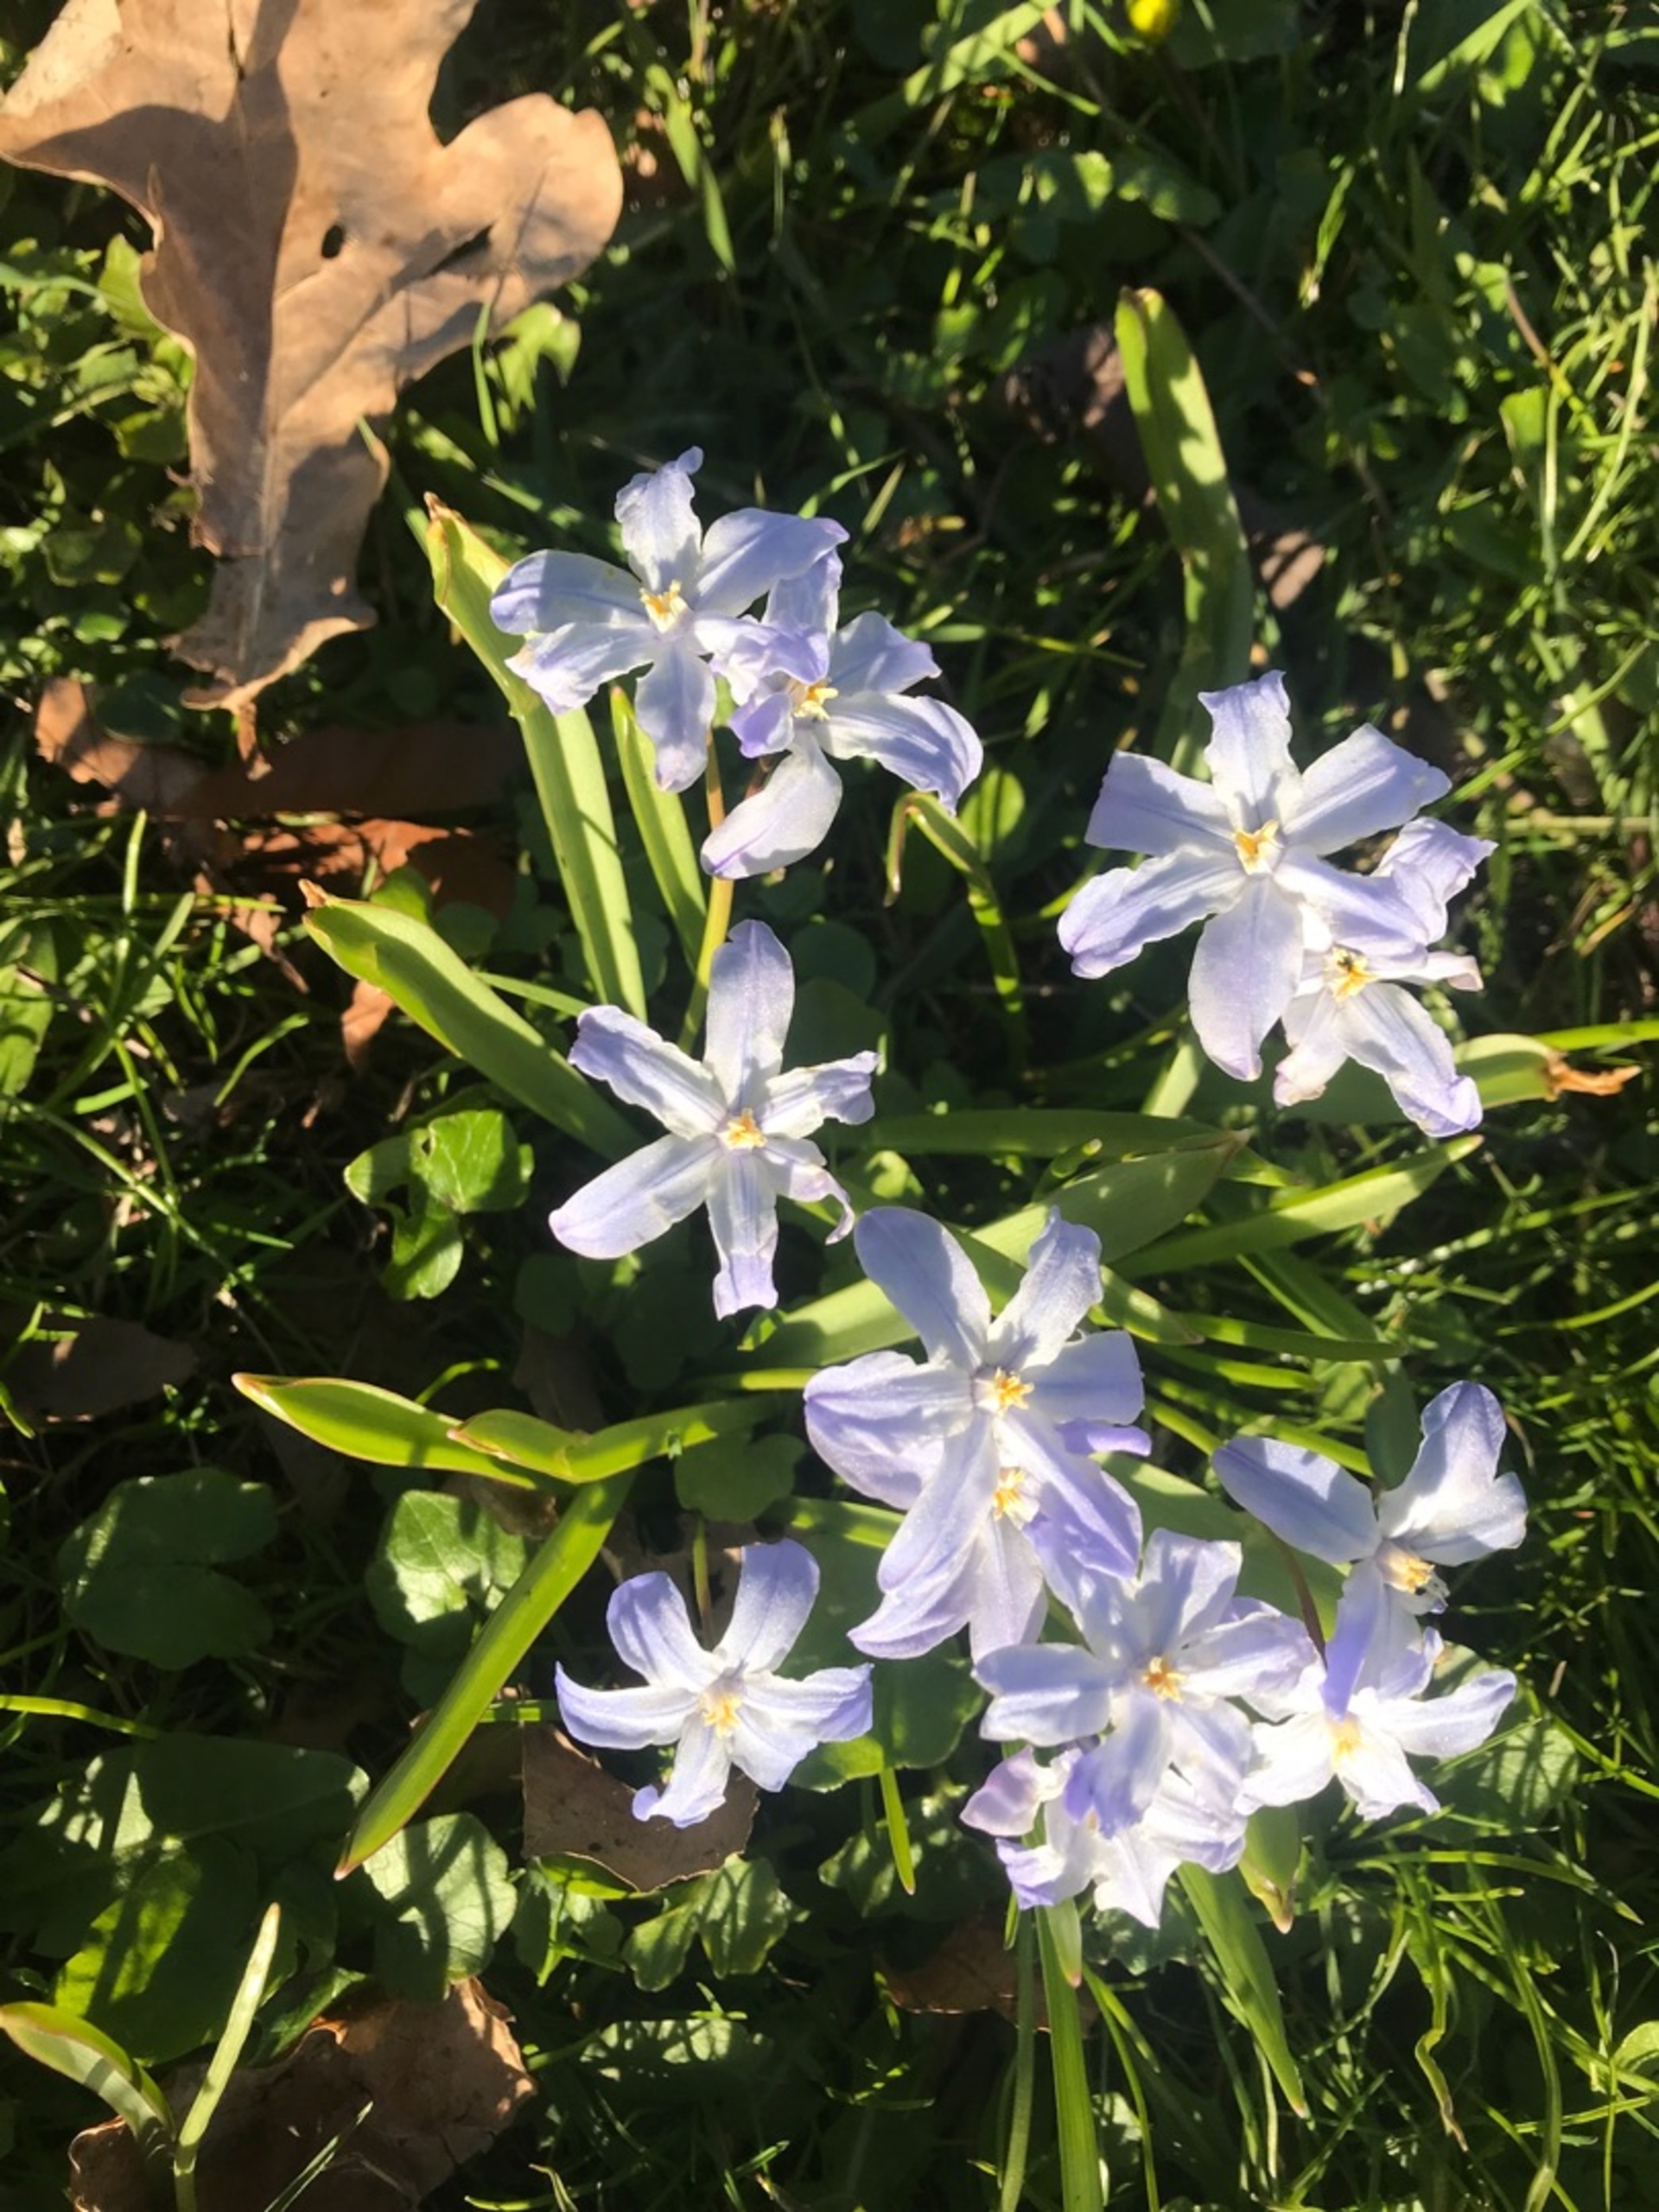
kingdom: Plantae
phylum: Tracheophyta
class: Liliopsida
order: Asparagales
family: Asparagaceae
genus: Scilla
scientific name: Scilla luciliae
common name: Stor snepryd
